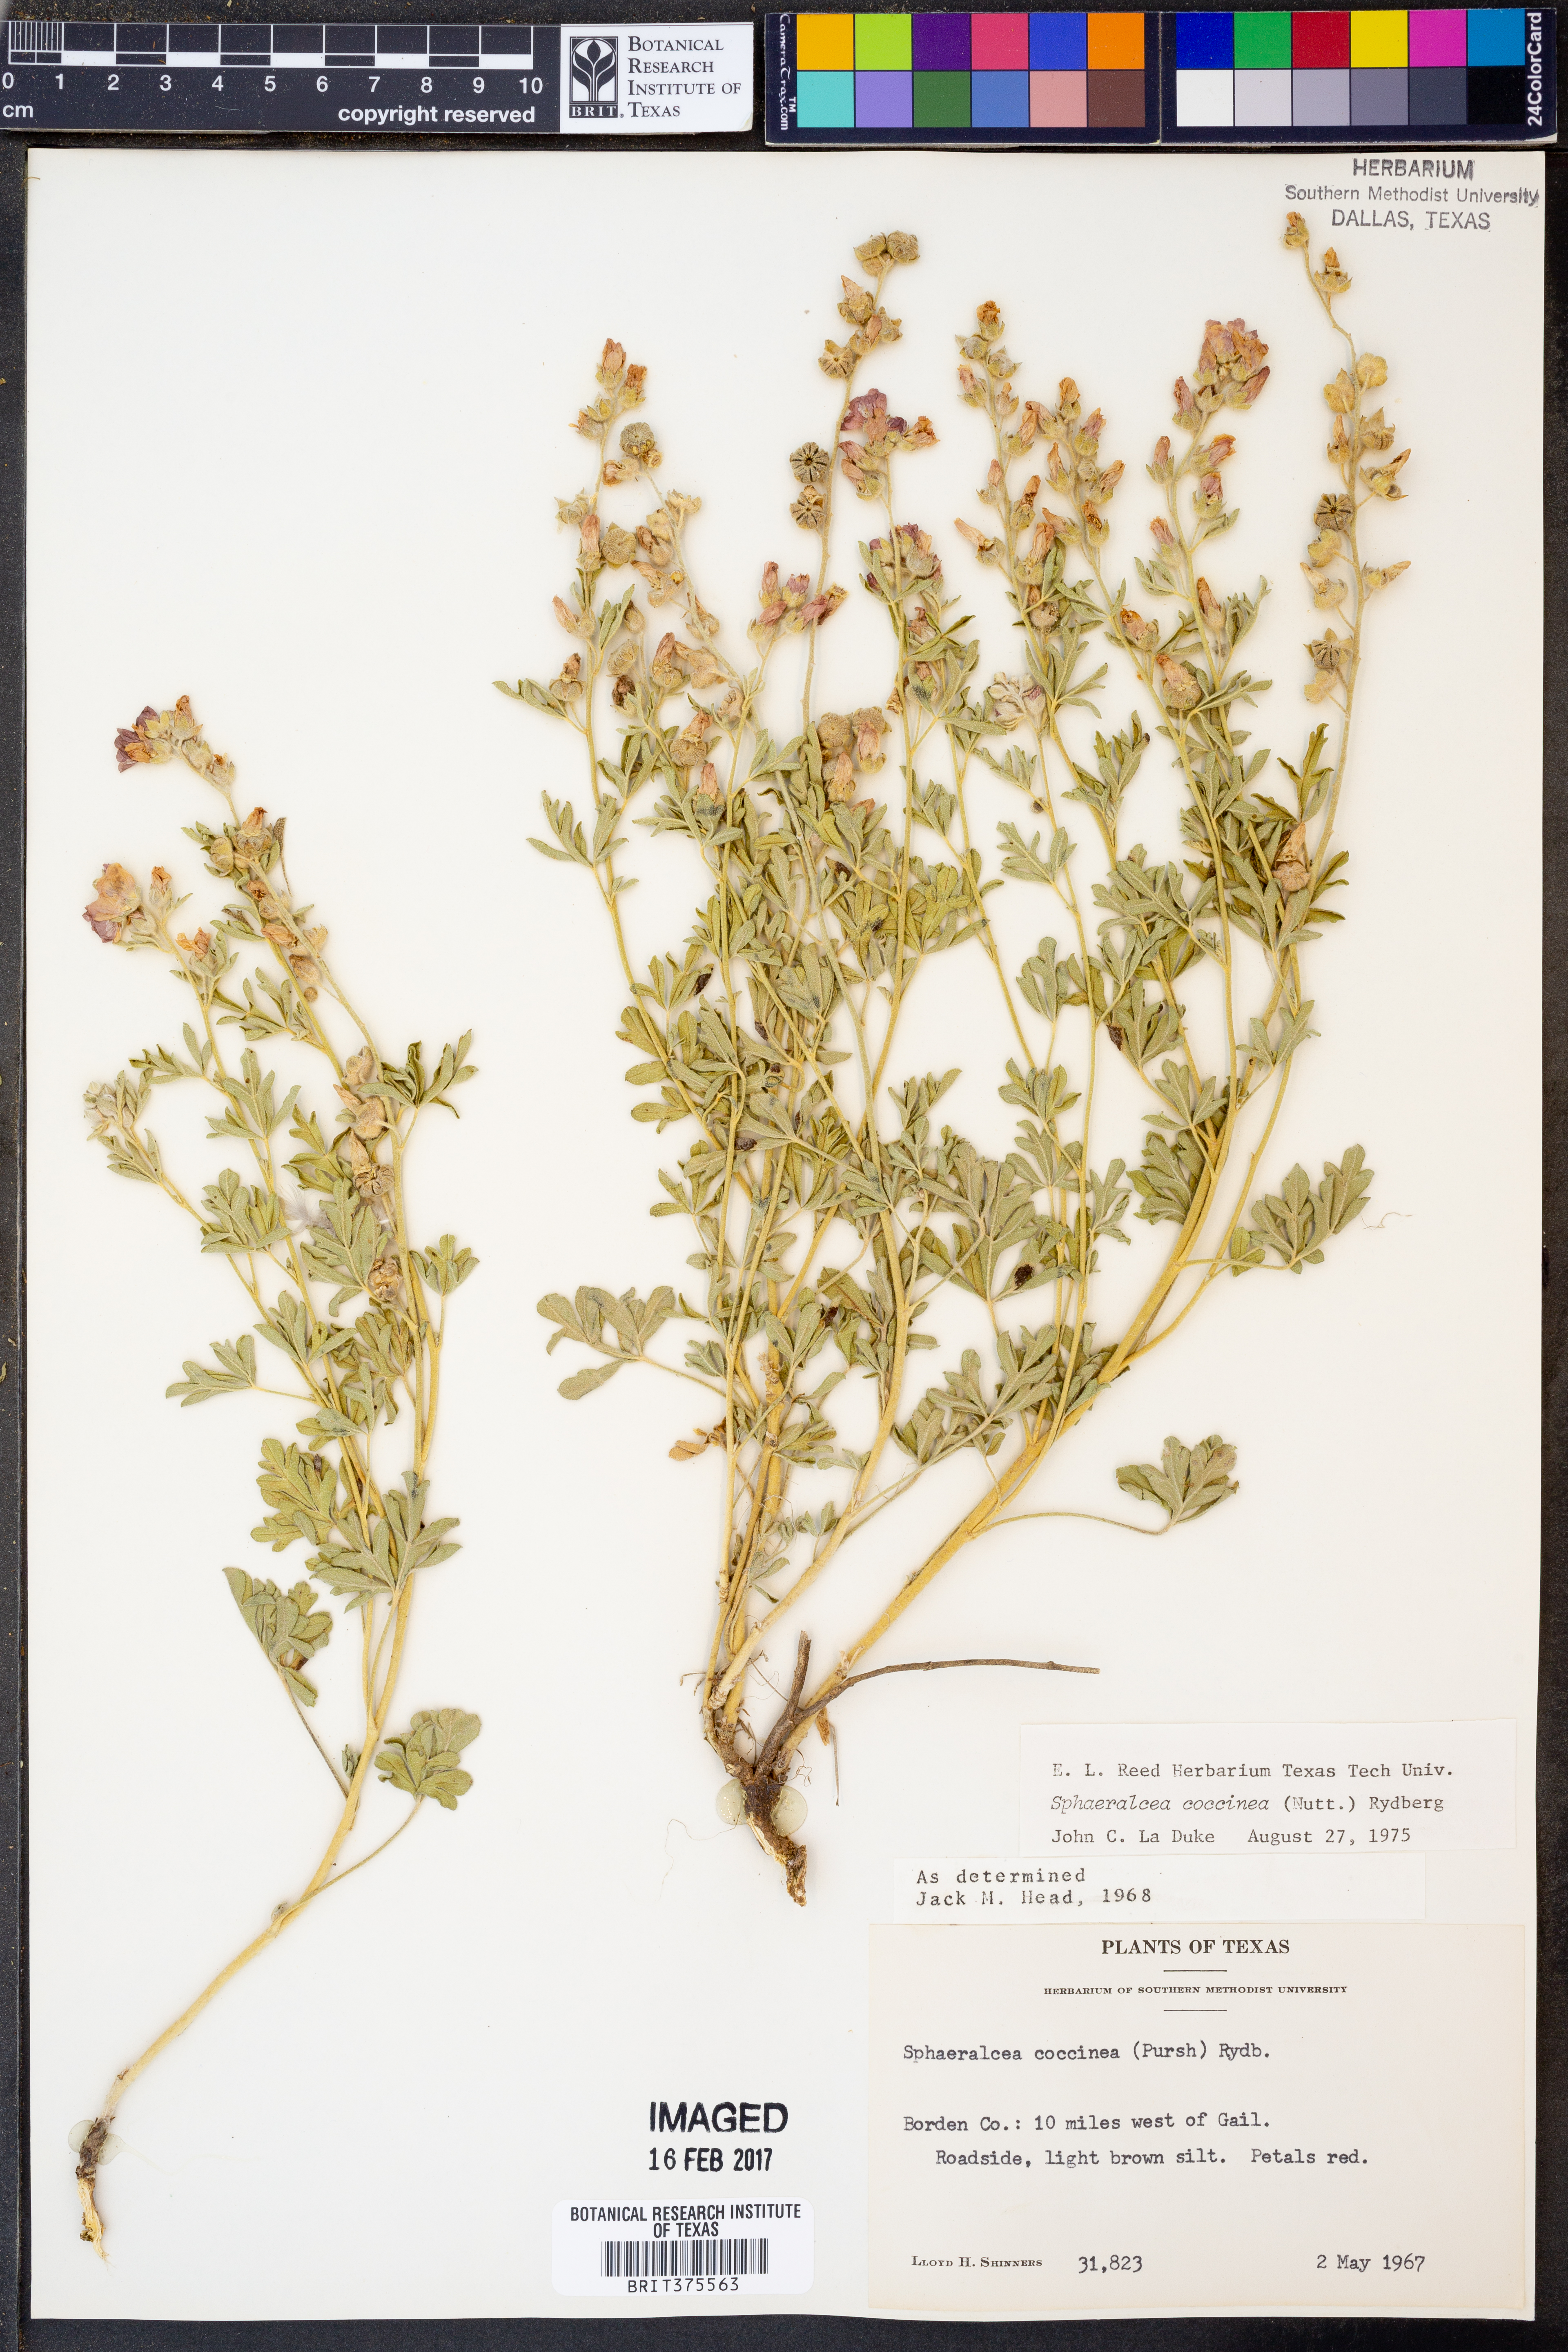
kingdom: Plantae
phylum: Tracheophyta
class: Magnoliopsida
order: Malvales
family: Malvaceae
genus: Sphaeralcea
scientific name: Sphaeralcea coccinea
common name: Moss-rose
